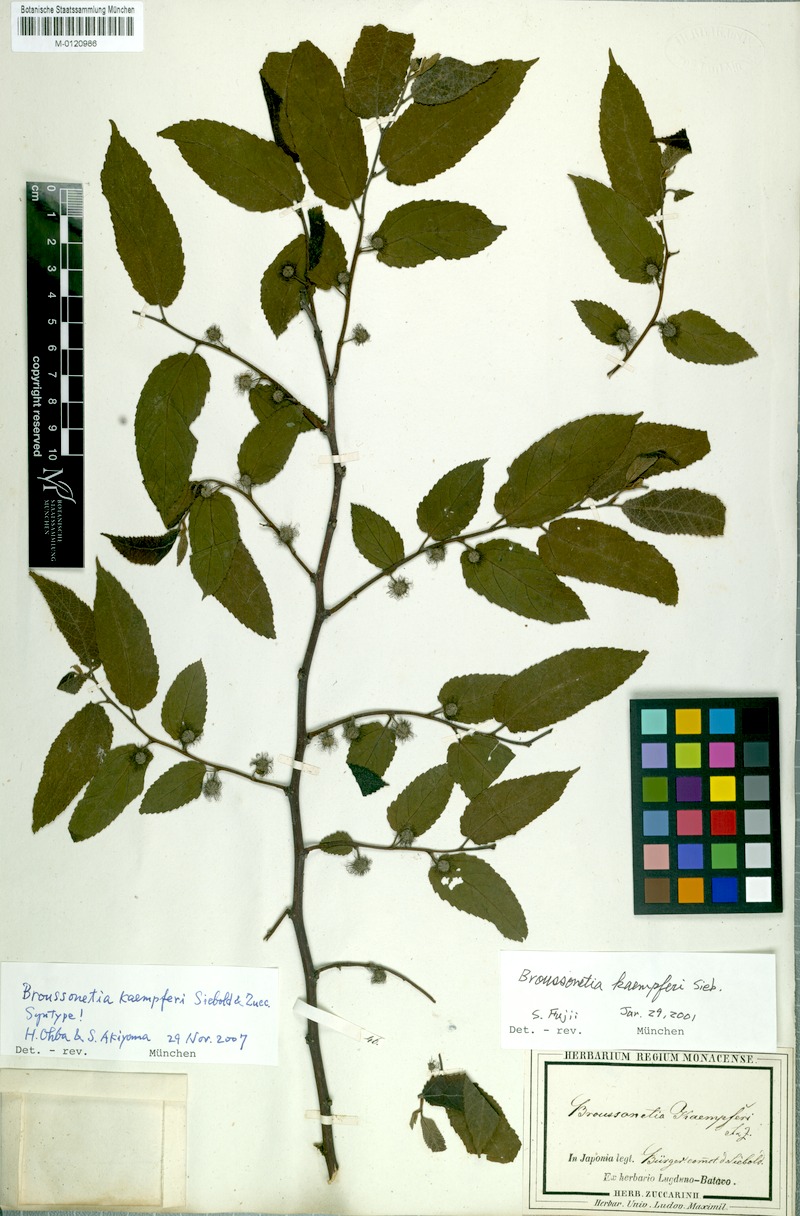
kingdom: Plantae
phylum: Tracheophyta
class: Magnoliopsida
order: Rosales
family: Moraceae
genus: Broussonetia
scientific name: Broussonetia kaempferi
